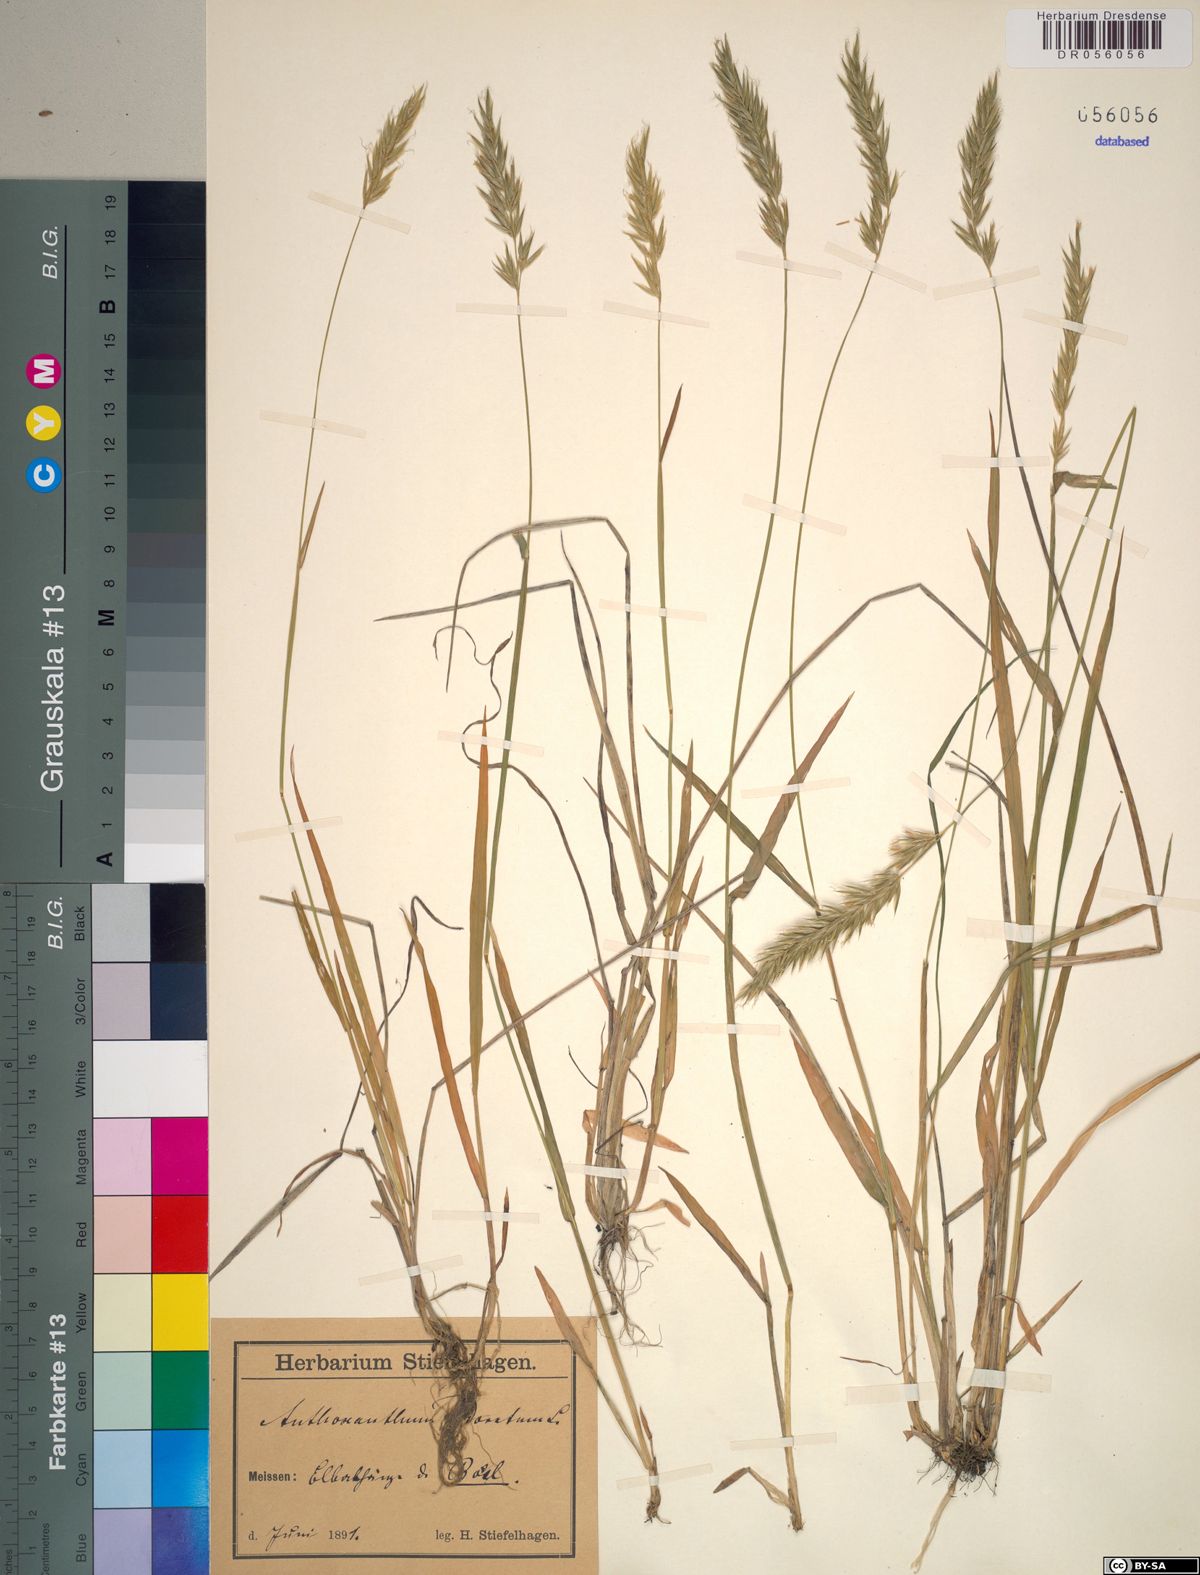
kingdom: Plantae
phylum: Tracheophyta
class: Liliopsida
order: Poales
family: Poaceae
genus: Anthoxanthum
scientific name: Anthoxanthum odoratum
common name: Sweet vernalgrass
